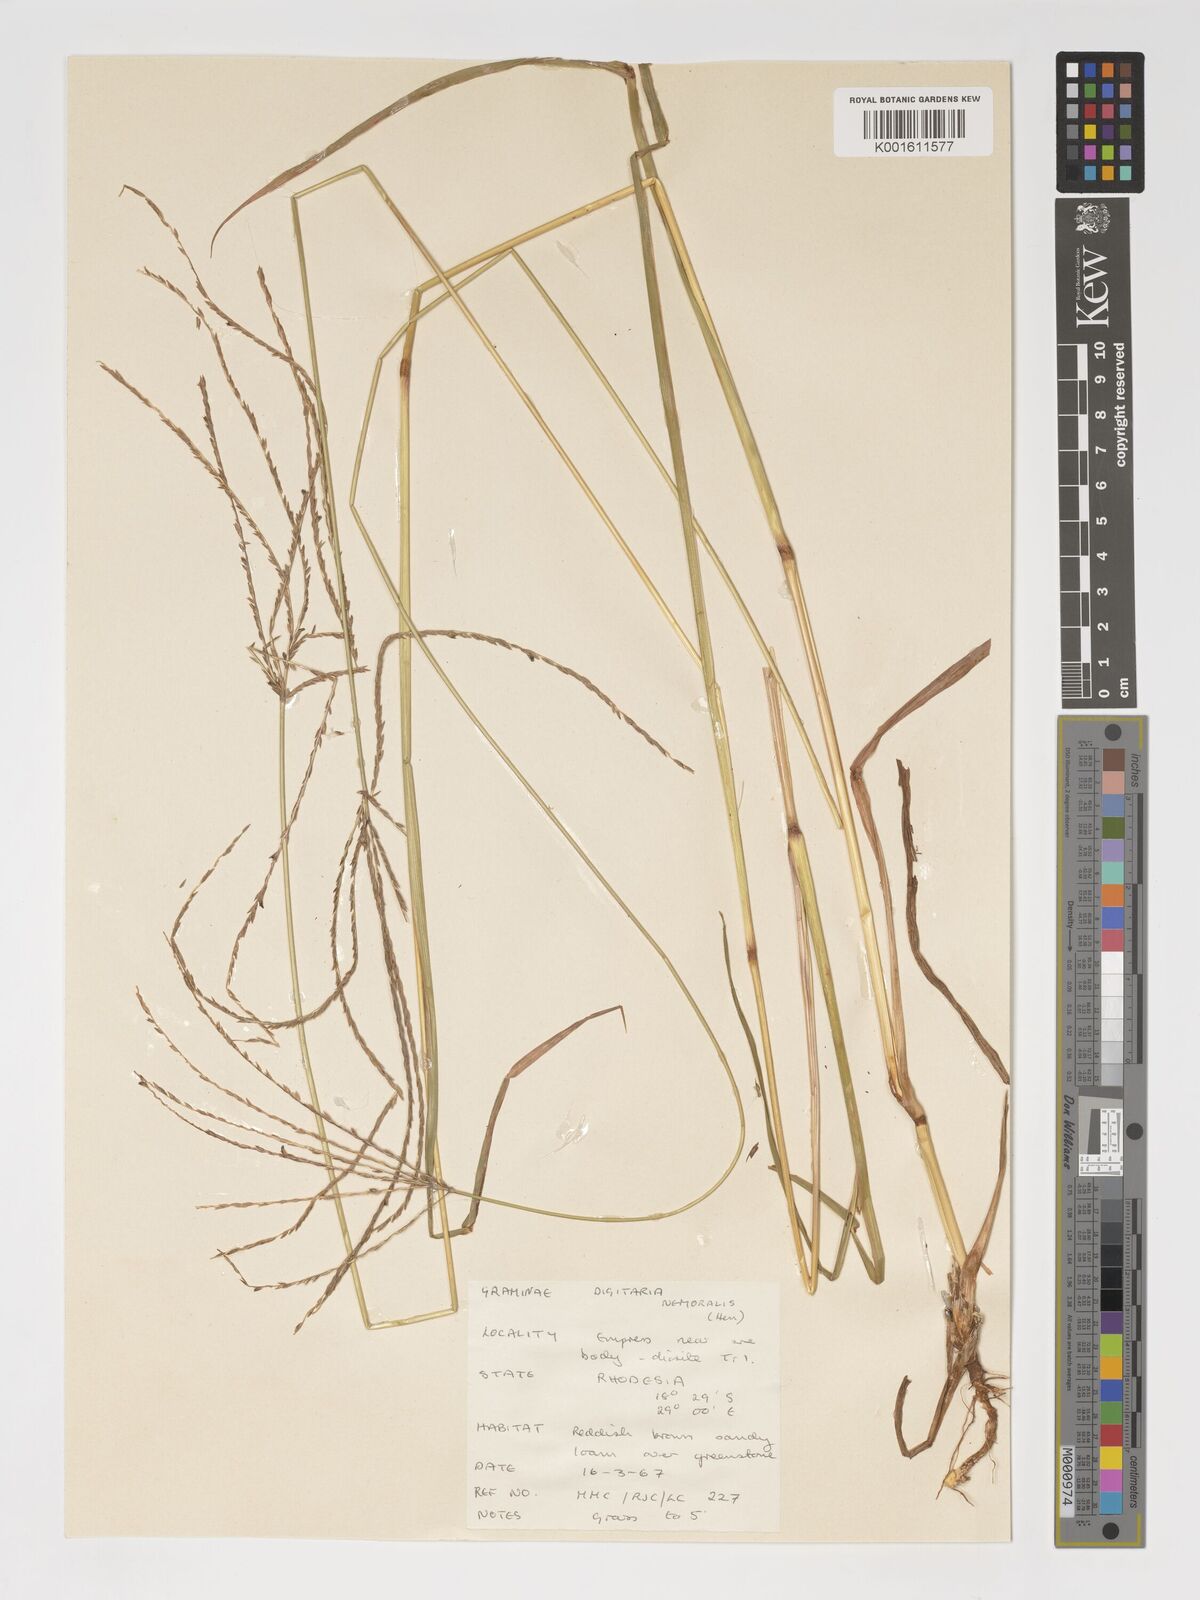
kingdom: Plantae
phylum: Tracheophyta
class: Liliopsida
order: Poales
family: Poaceae
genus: Digitaria
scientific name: Digitaria eriantha
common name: Digitgrass
